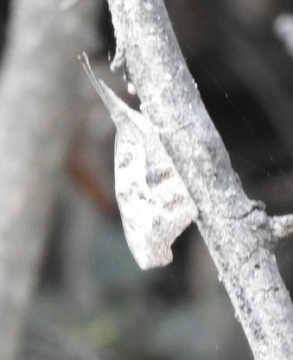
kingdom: Animalia
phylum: Arthropoda
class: Insecta
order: Lepidoptera
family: Nymphalidae
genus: Libytheana
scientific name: Libytheana carinenta
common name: American Snout
